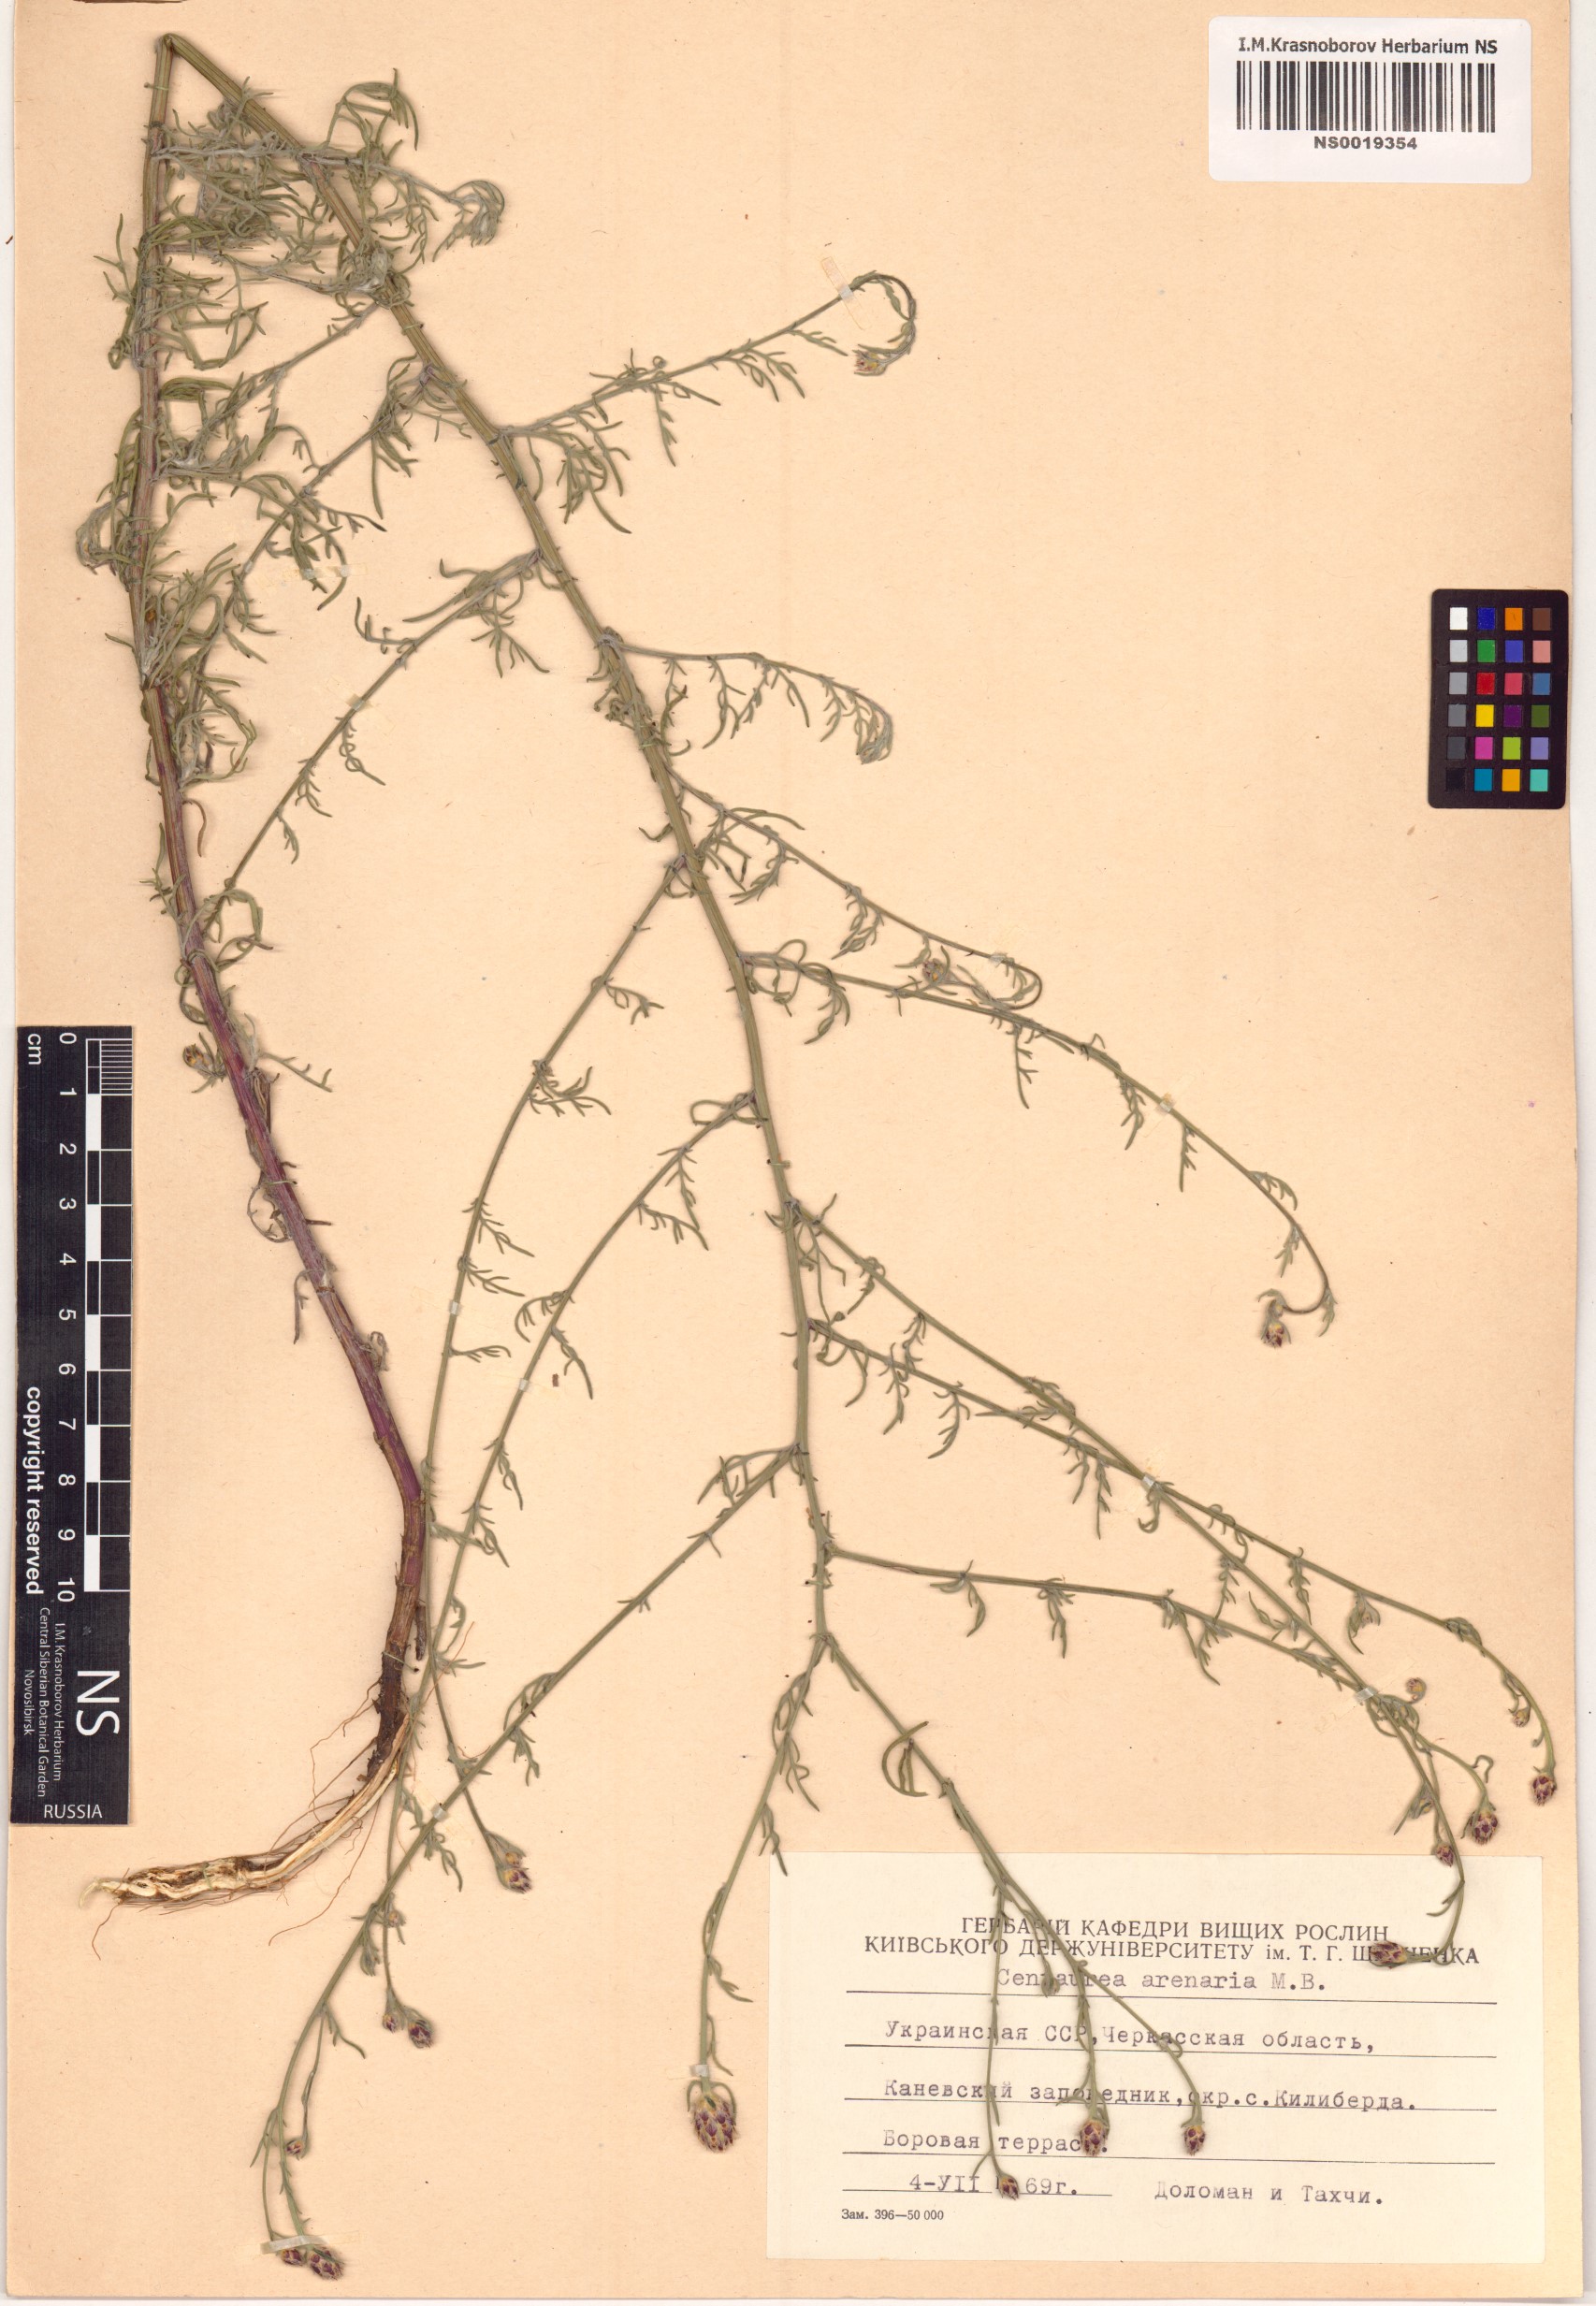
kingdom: Plantae
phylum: Tracheophyta
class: Magnoliopsida
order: Asterales
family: Asteraceae
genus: Centaurea
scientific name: Centaurea arenaria
